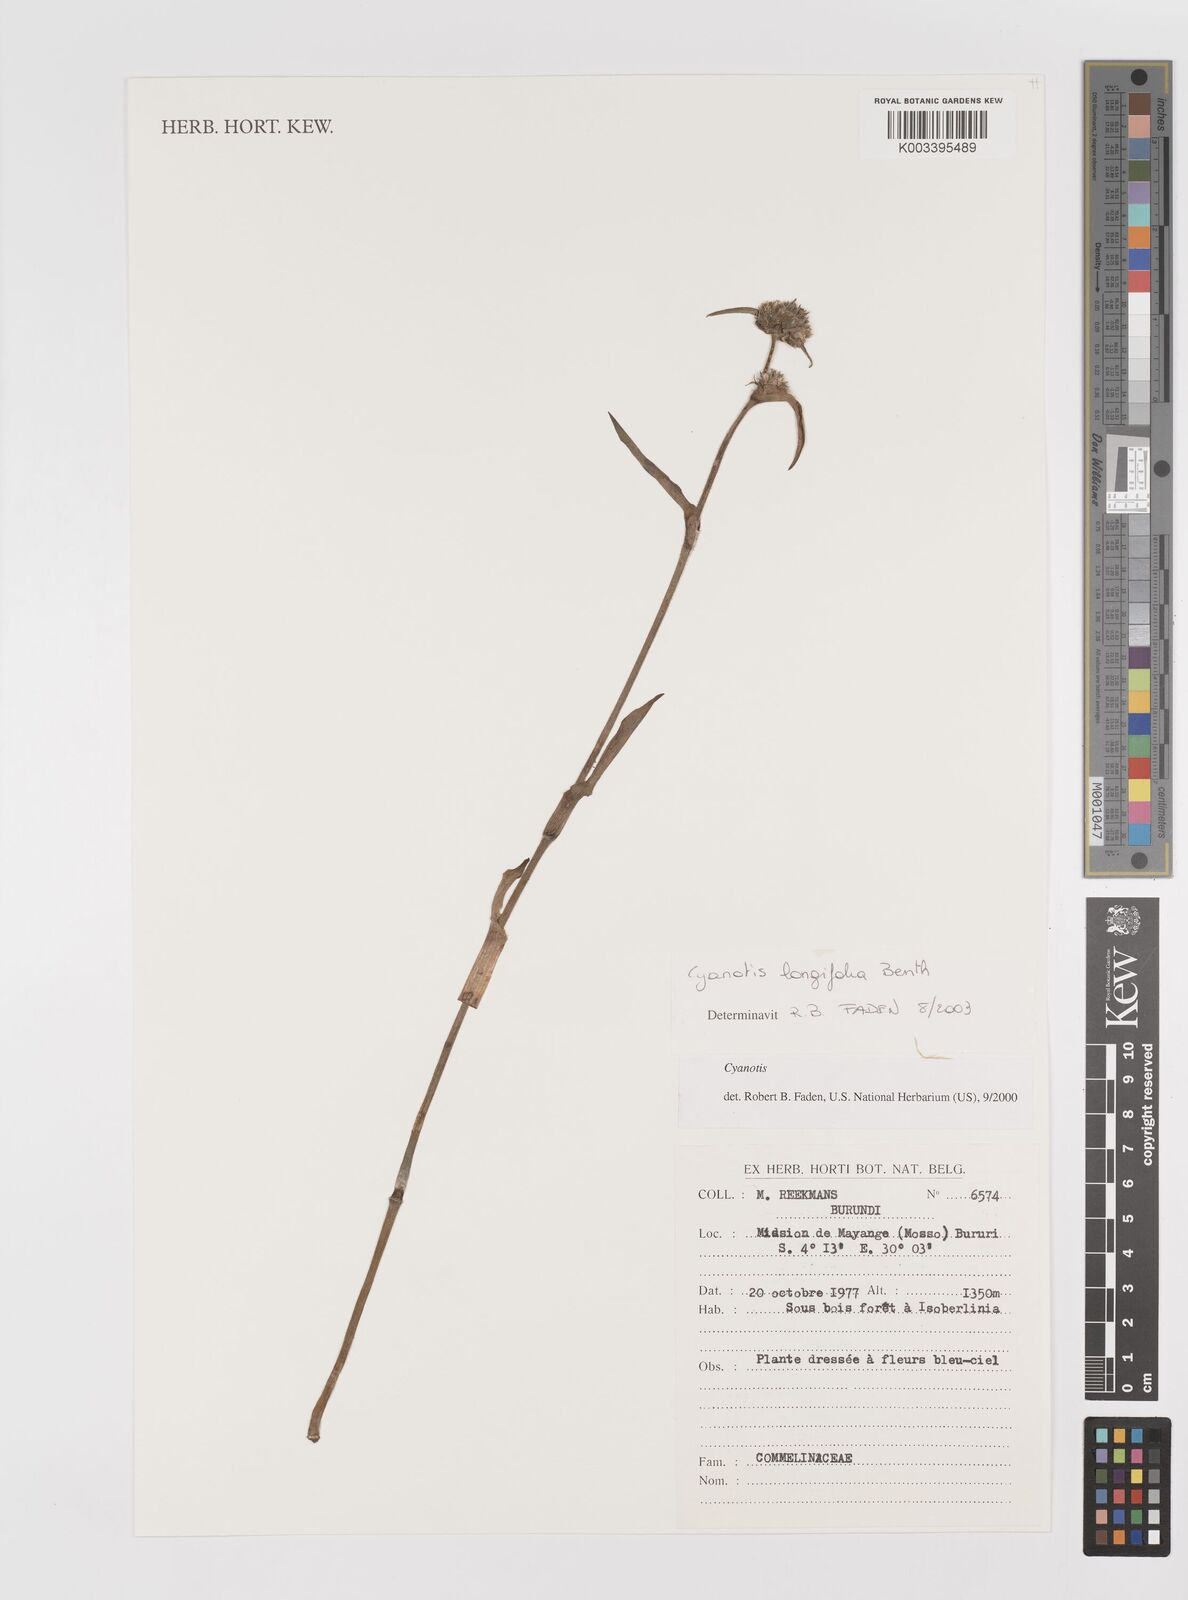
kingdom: Plantae
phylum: Tracheophyta
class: Liliopsida
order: Commelinales
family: Commelinaceae
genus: Cyanotis
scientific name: Cyanotis longifolia
